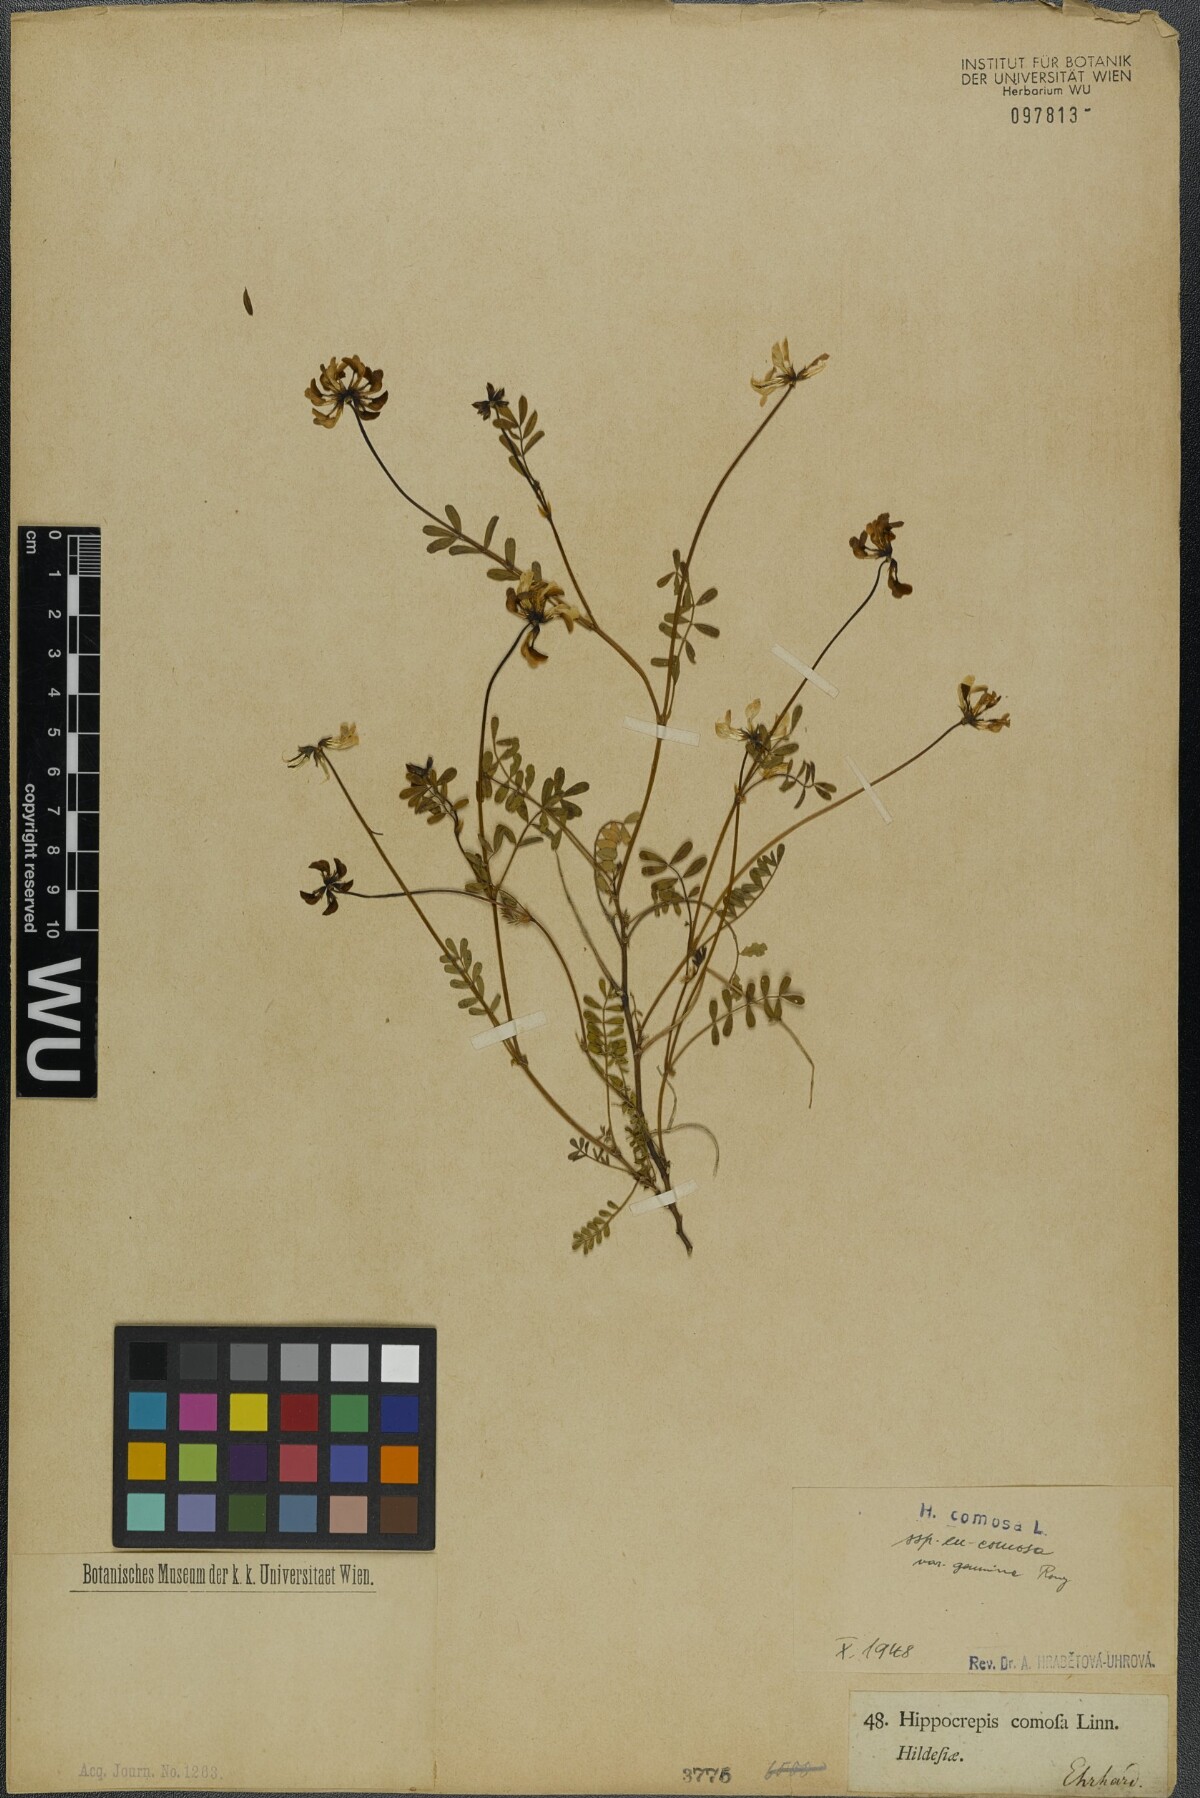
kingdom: Plantae
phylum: Tracheophyta
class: Magnoliopsida
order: Fabales
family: Fabaceae
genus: Hippocrepis
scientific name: Hippocrepis comosa
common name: Horseshoe vetch
